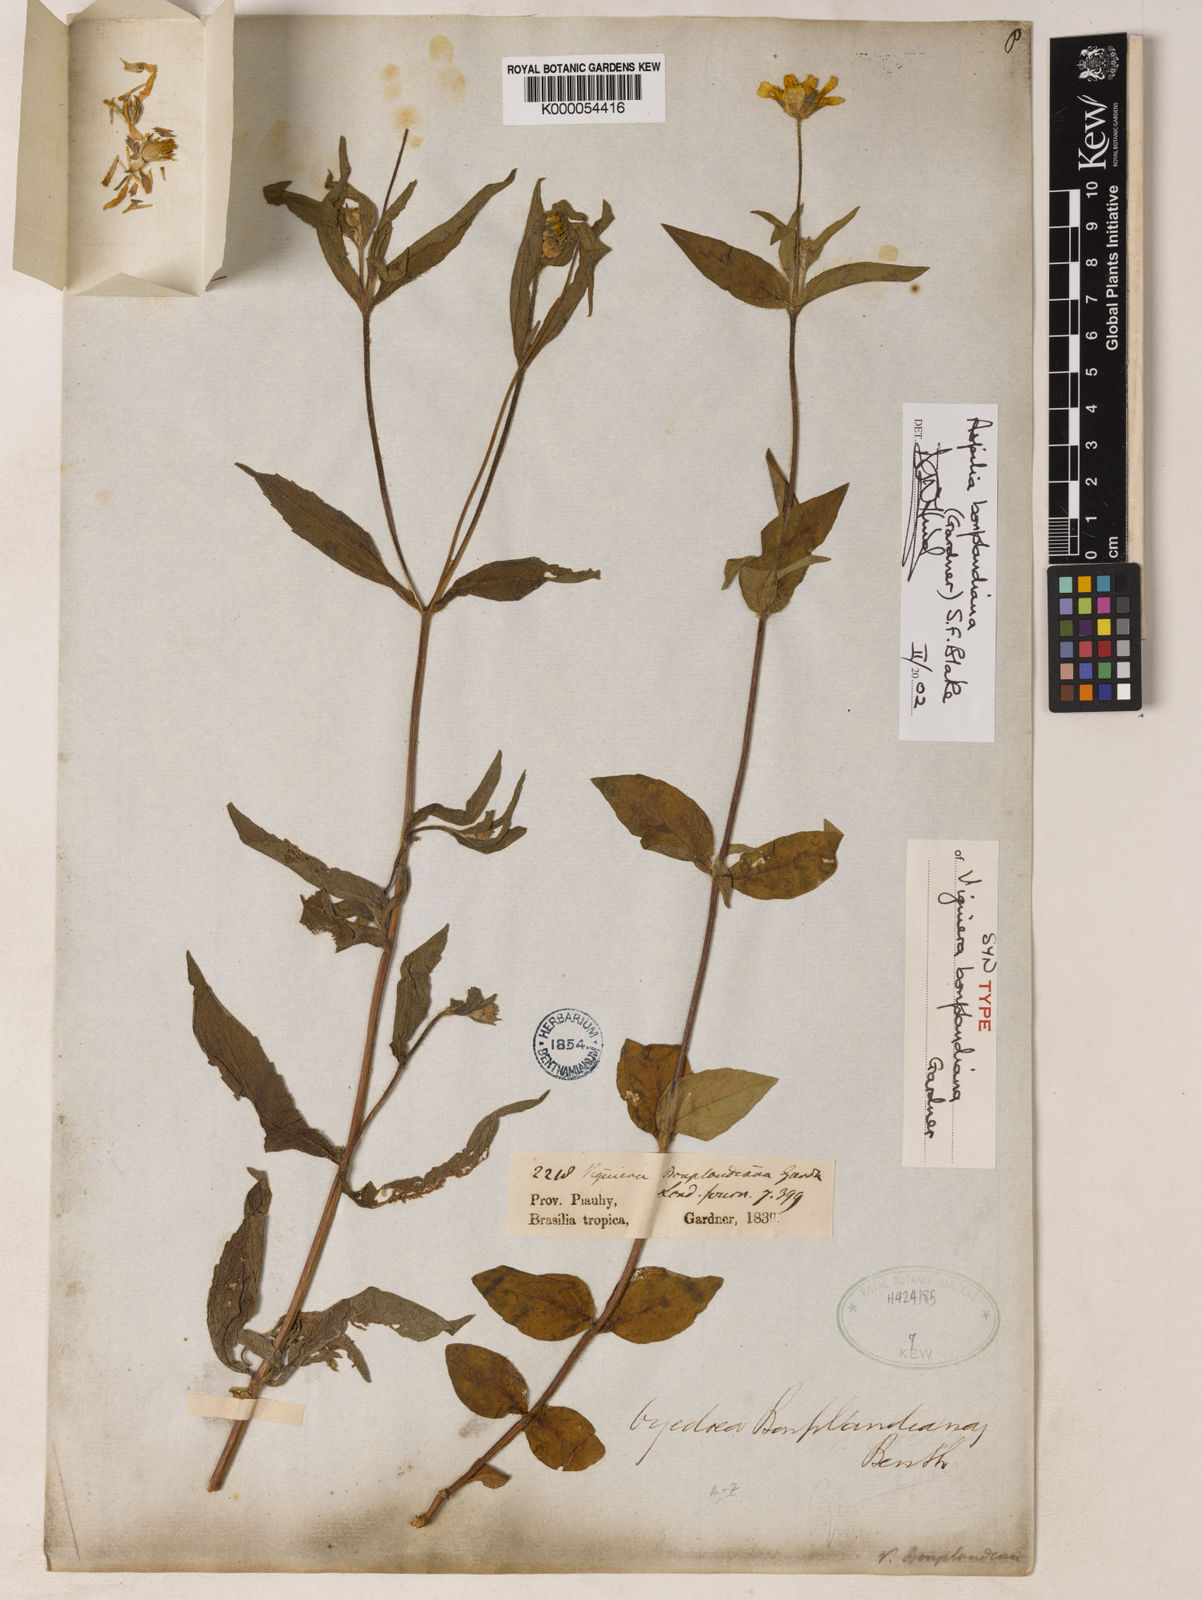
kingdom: Plantae
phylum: Tracheophyta
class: Magnoliopsida
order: Asterales
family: Asteraceae
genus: Wedelia
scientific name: Wedelia bonplandiana
